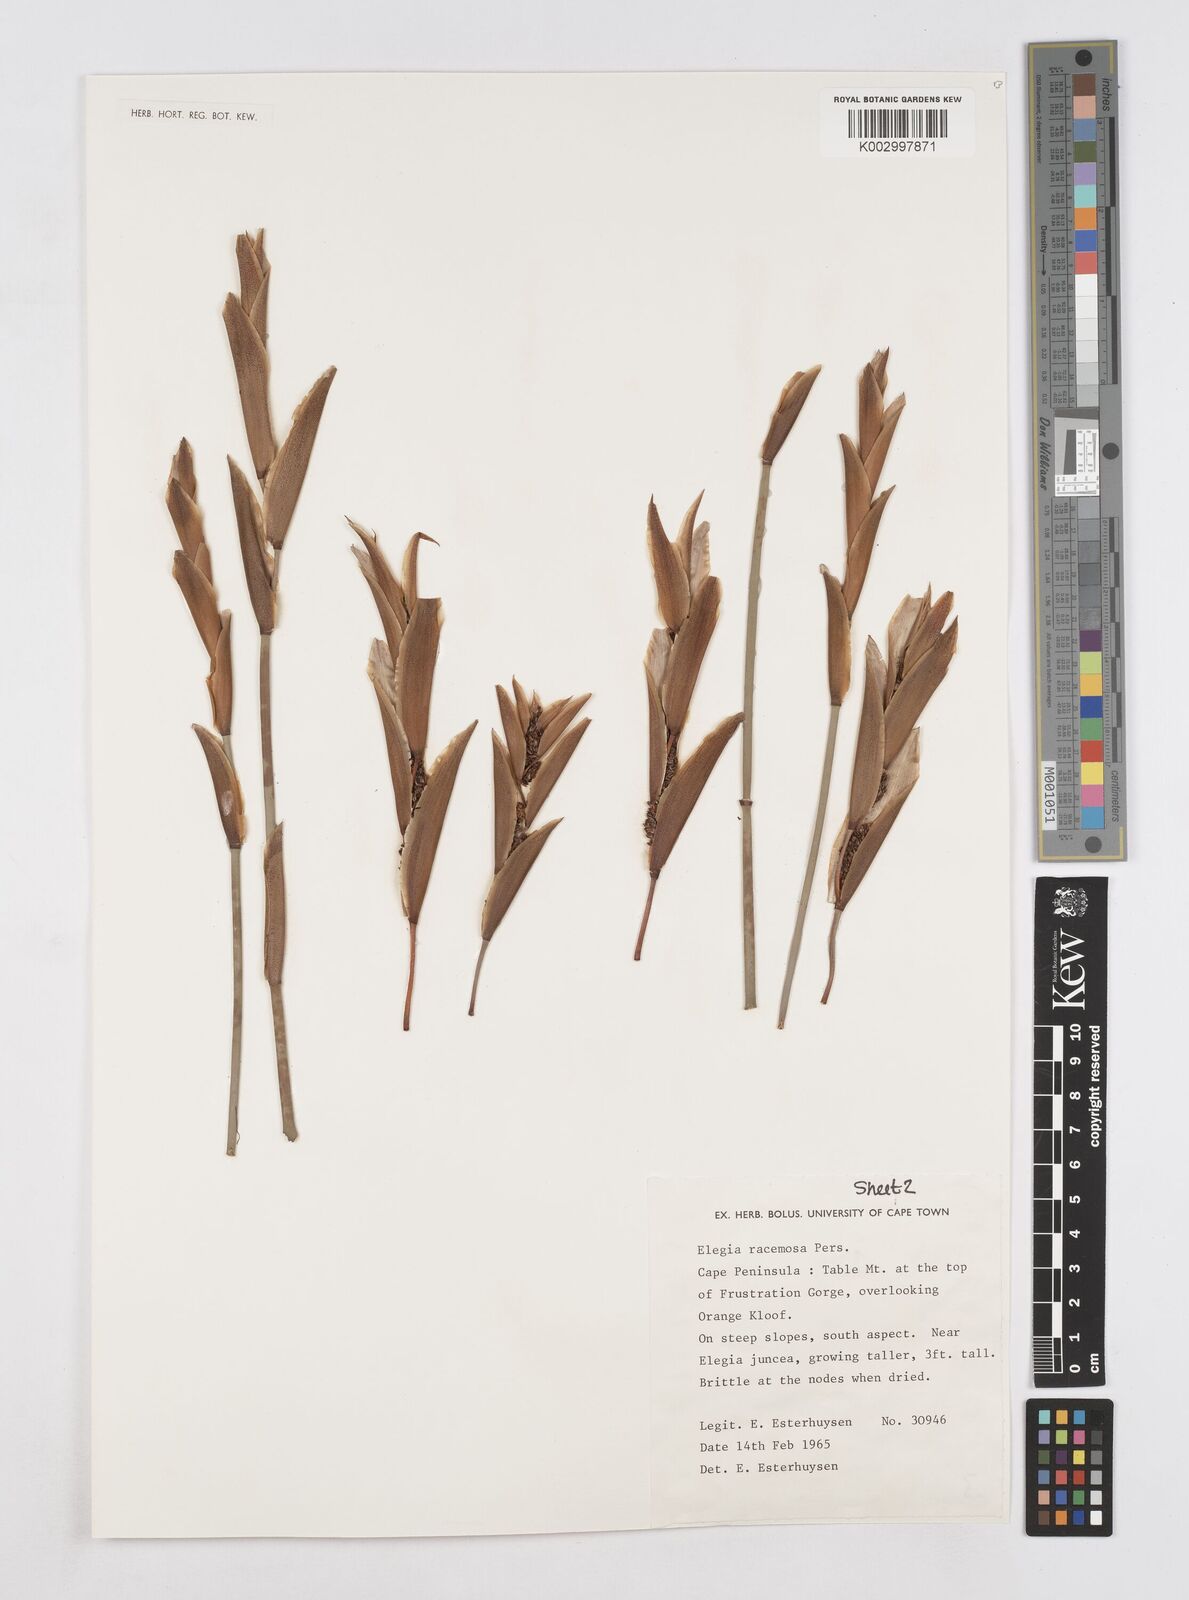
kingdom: Plantae
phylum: Tracheophyta
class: Liliopsida
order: Poales
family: Restionaceae
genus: Elegia
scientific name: Elegia racemosa
